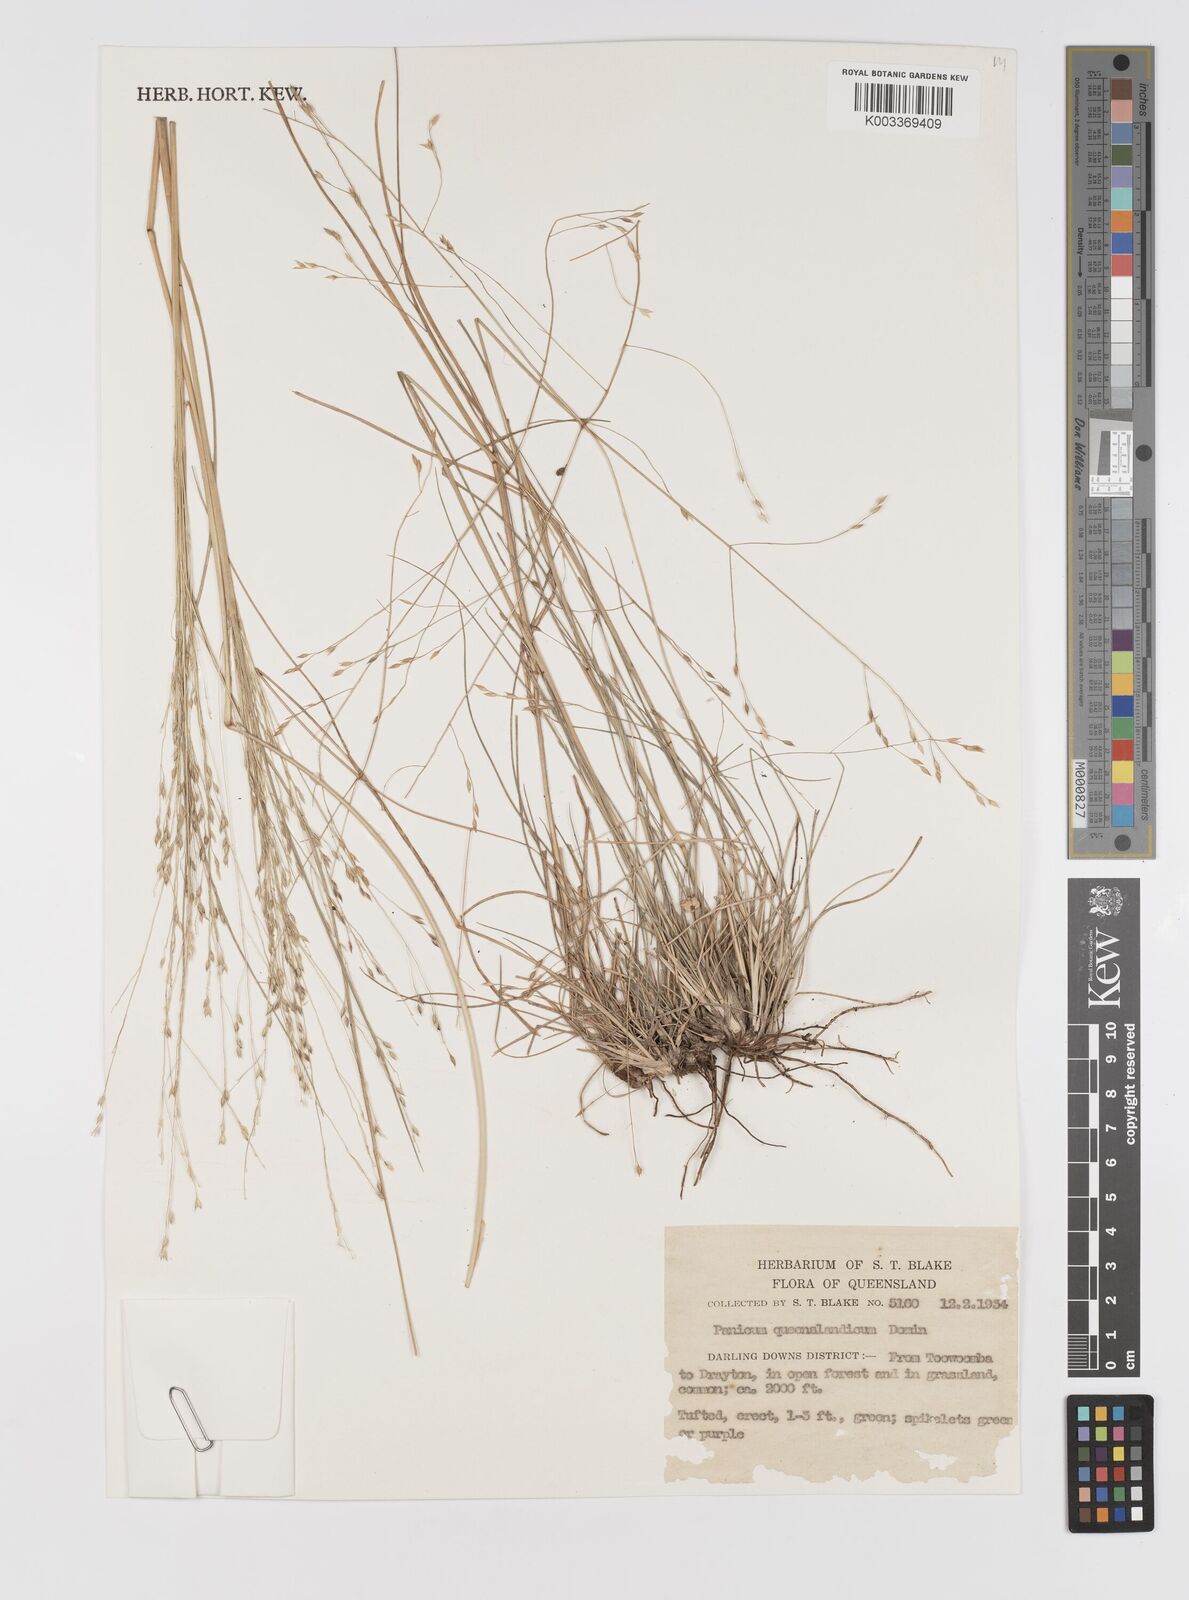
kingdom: Plantae
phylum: Tracheophyta
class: Liliopsida
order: Poales
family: Poaceae
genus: Panicum
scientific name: Panicum queenslandicum
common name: Yabila grass
